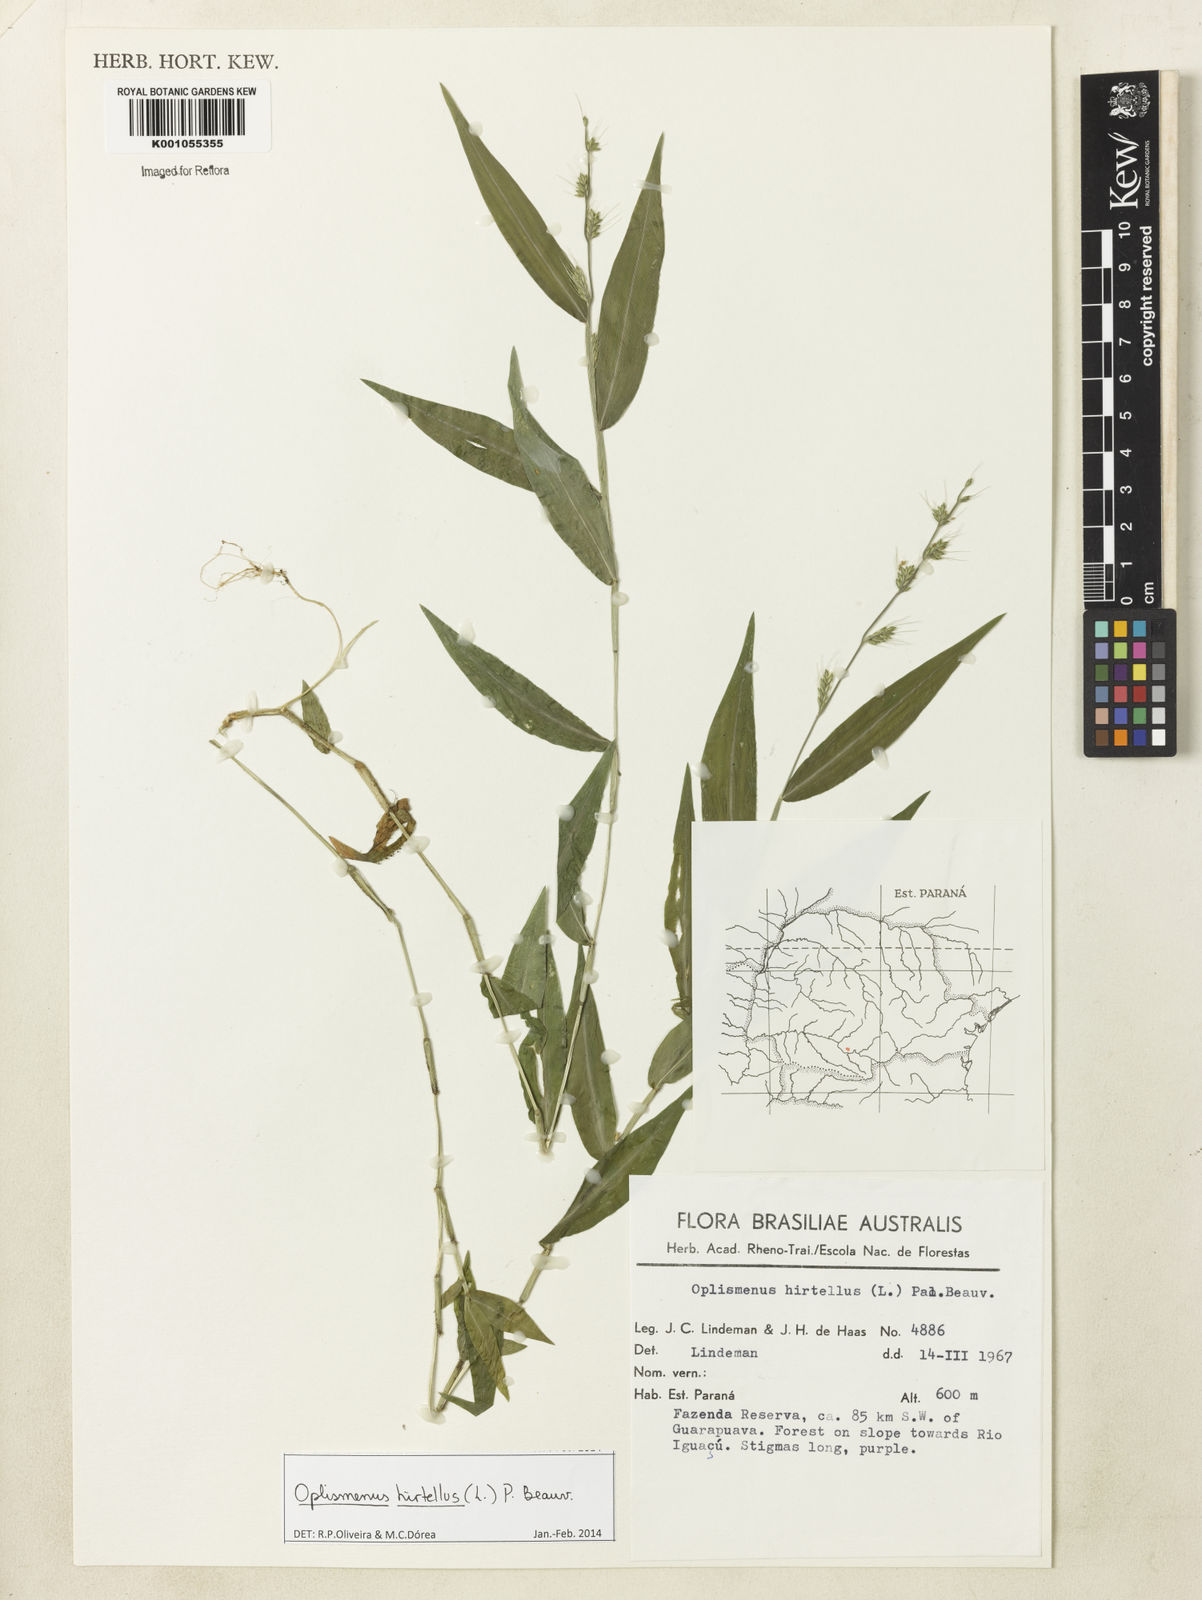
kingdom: Plantae
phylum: Tracheophyta
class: Liliopsida
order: Poales
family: Poaceae
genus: Oplismenus
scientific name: Oplismenus hirtellus
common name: Basketgrass
